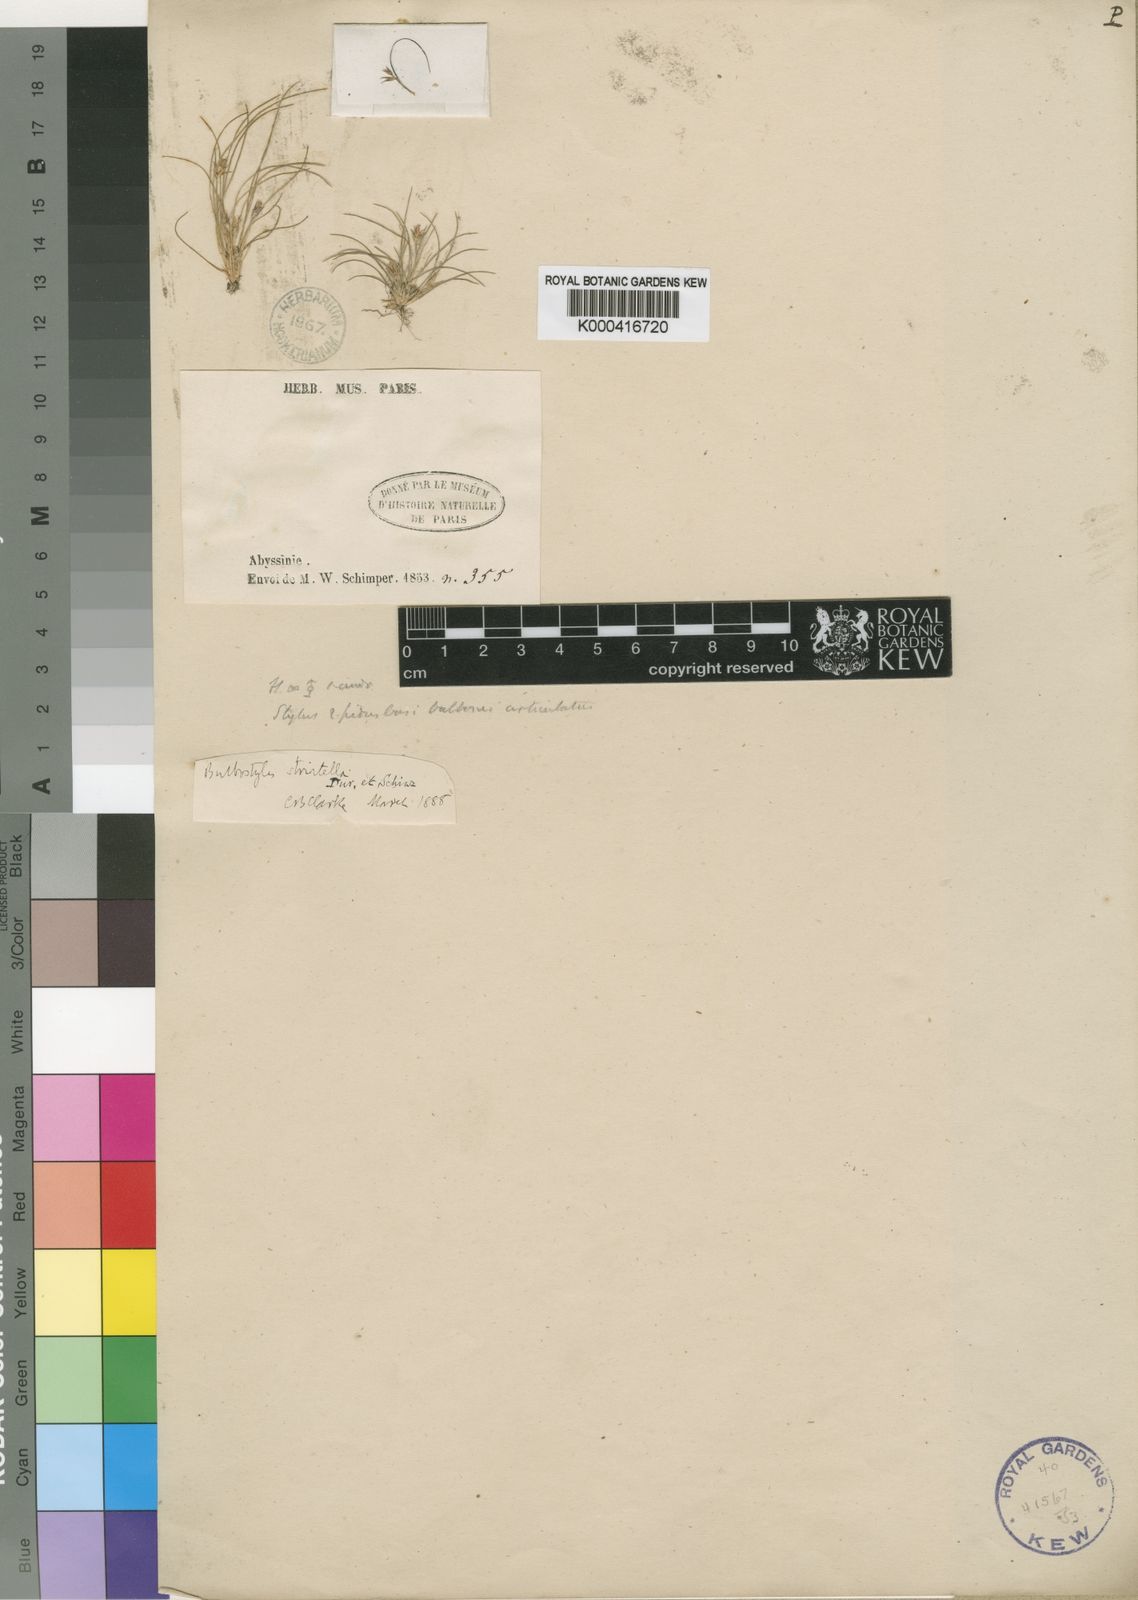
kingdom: Plantae
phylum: Tracheophyta
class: Liliopsida
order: Poales
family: Cyperaceae
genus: Bulbostylis
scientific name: Bulbostylis
